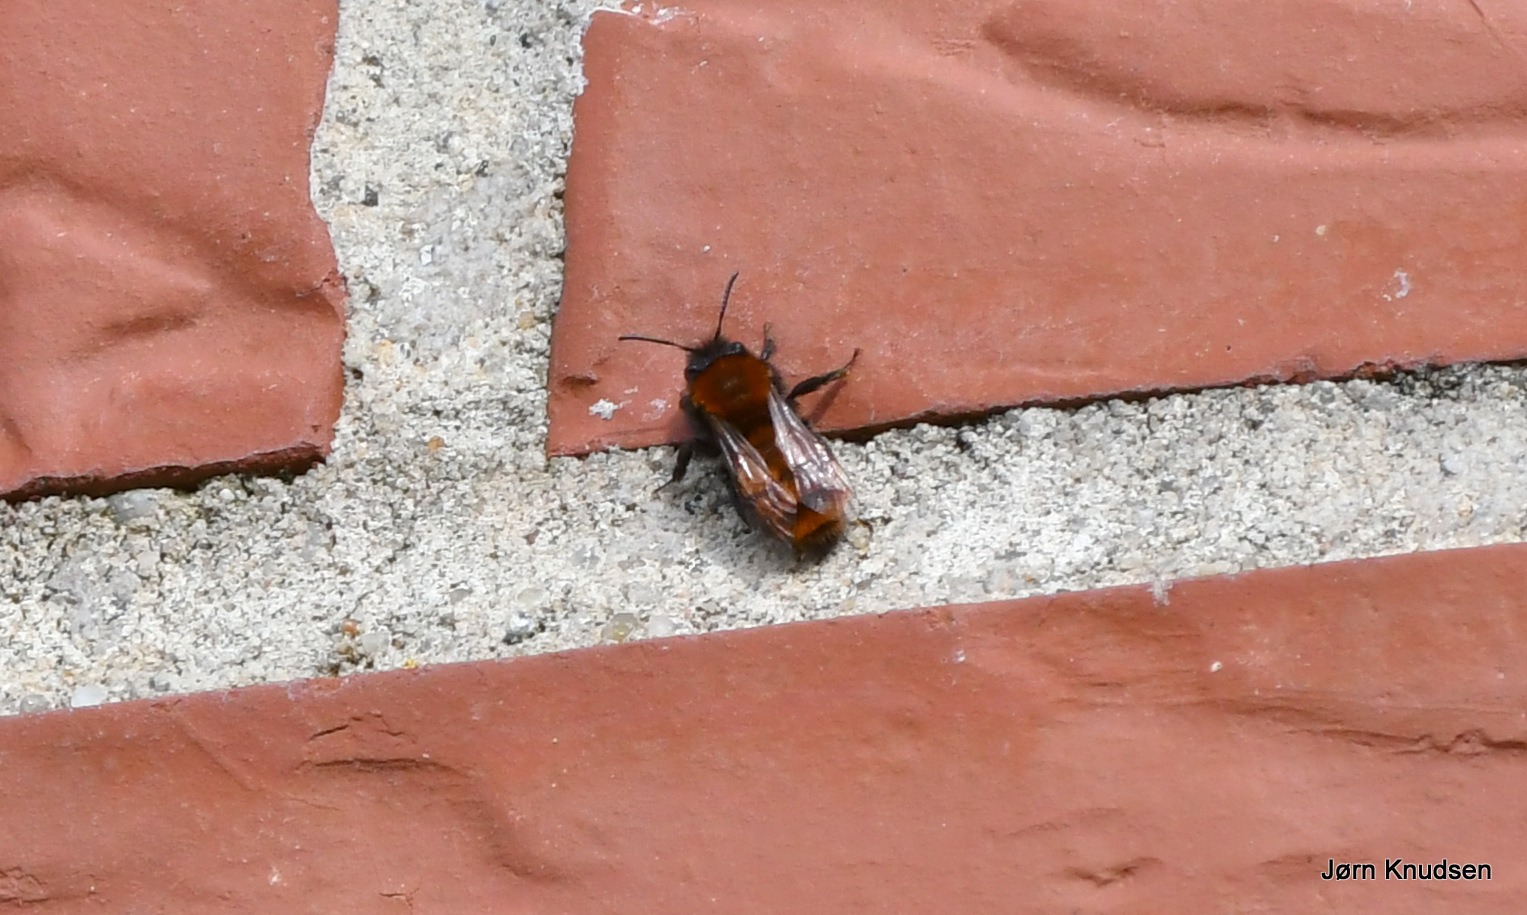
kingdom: Animalia
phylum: Arthropoda
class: Insecta
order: Hymenoptera
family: Andrenidae
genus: Andrena
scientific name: Andrena fulva
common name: Rødpelset jordbi
